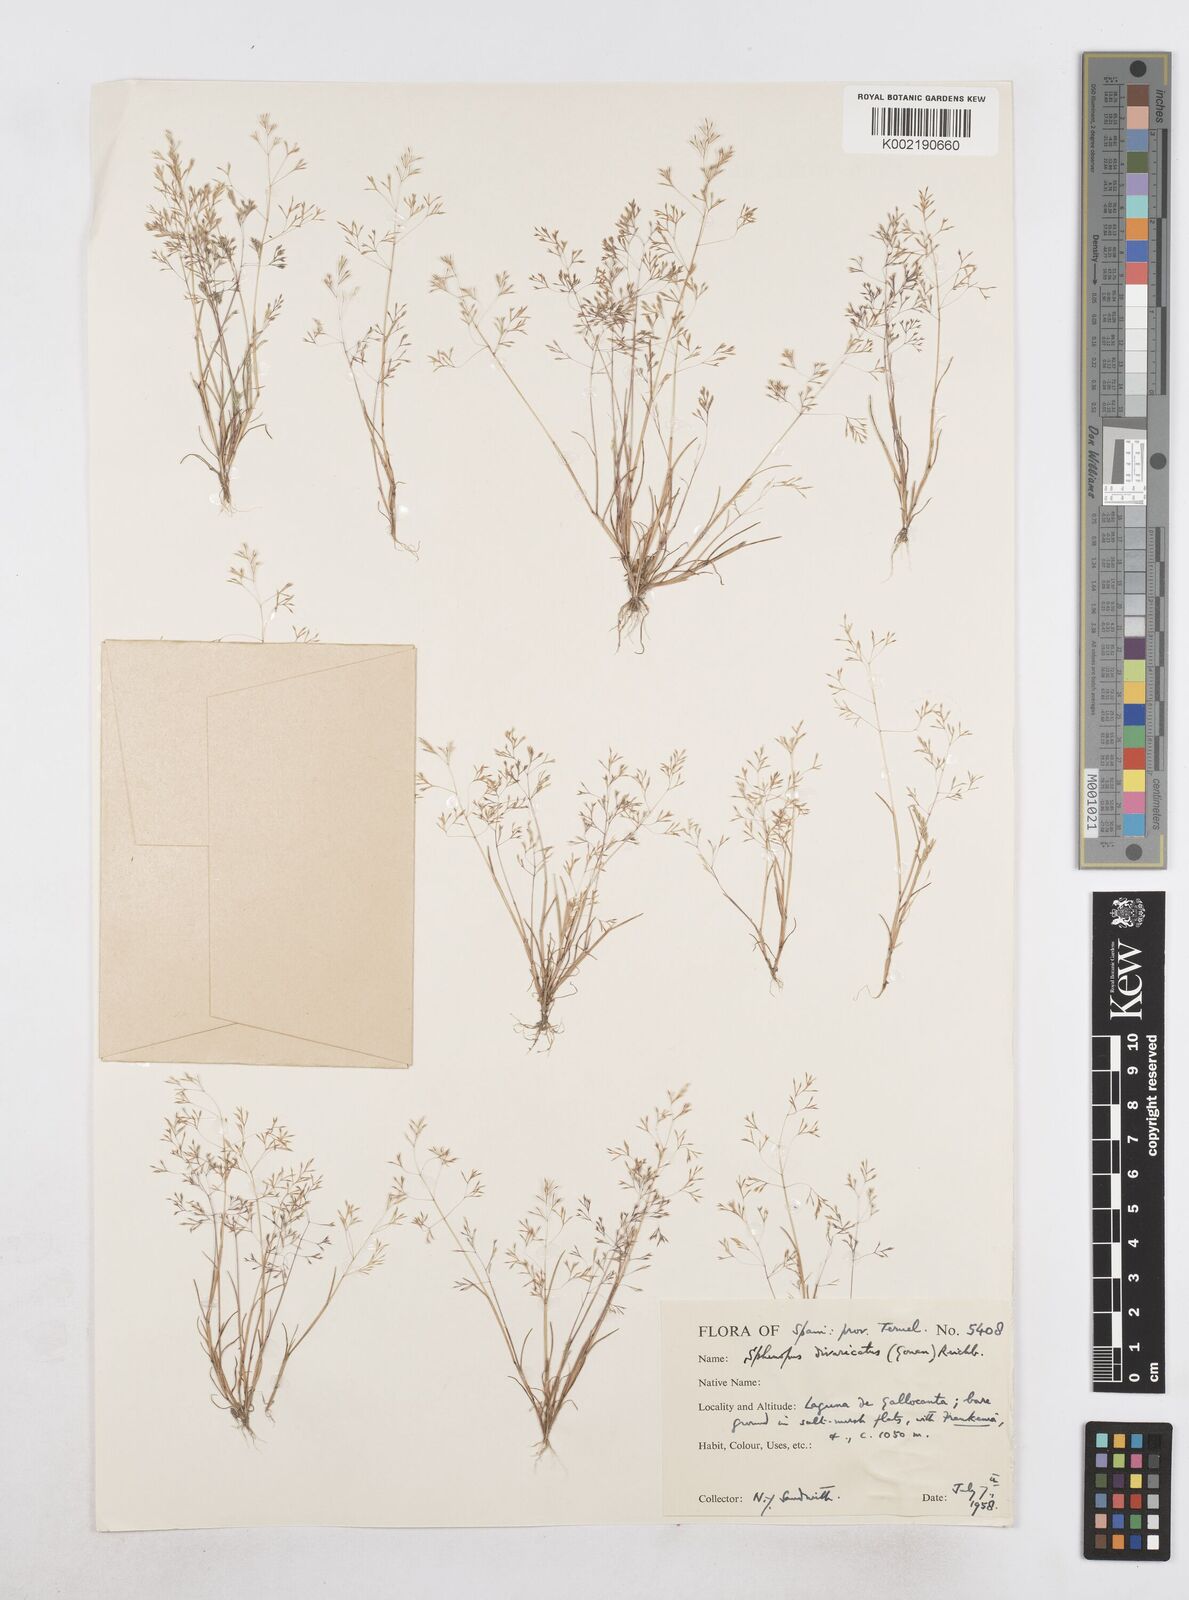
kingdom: Plantae
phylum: Tracheophyta
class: Liliopsida
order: Poales
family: Poaceae
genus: Sphenopus
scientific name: Sphenopus divaricatus
